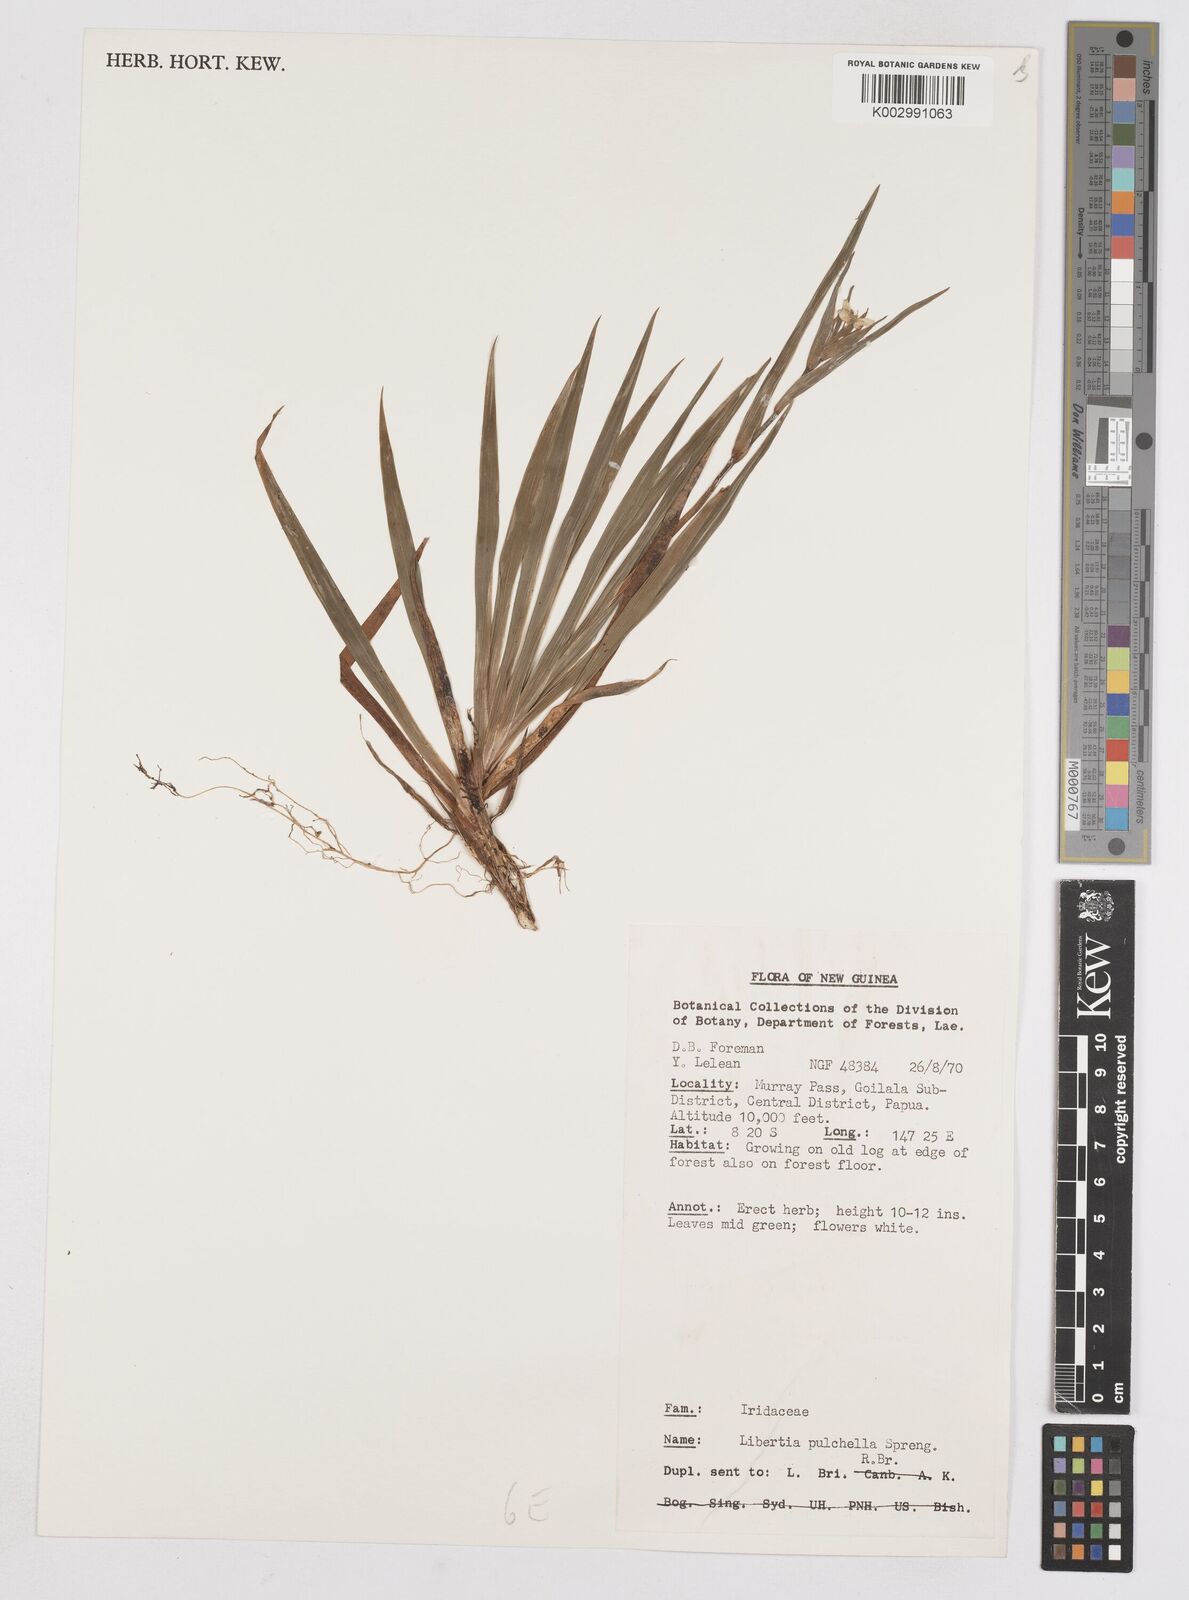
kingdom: Plantae
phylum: Tracheophyta
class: Liliopsida
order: Asparagales
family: Iridaceae
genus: Libertia
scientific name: Libertia pulchella
